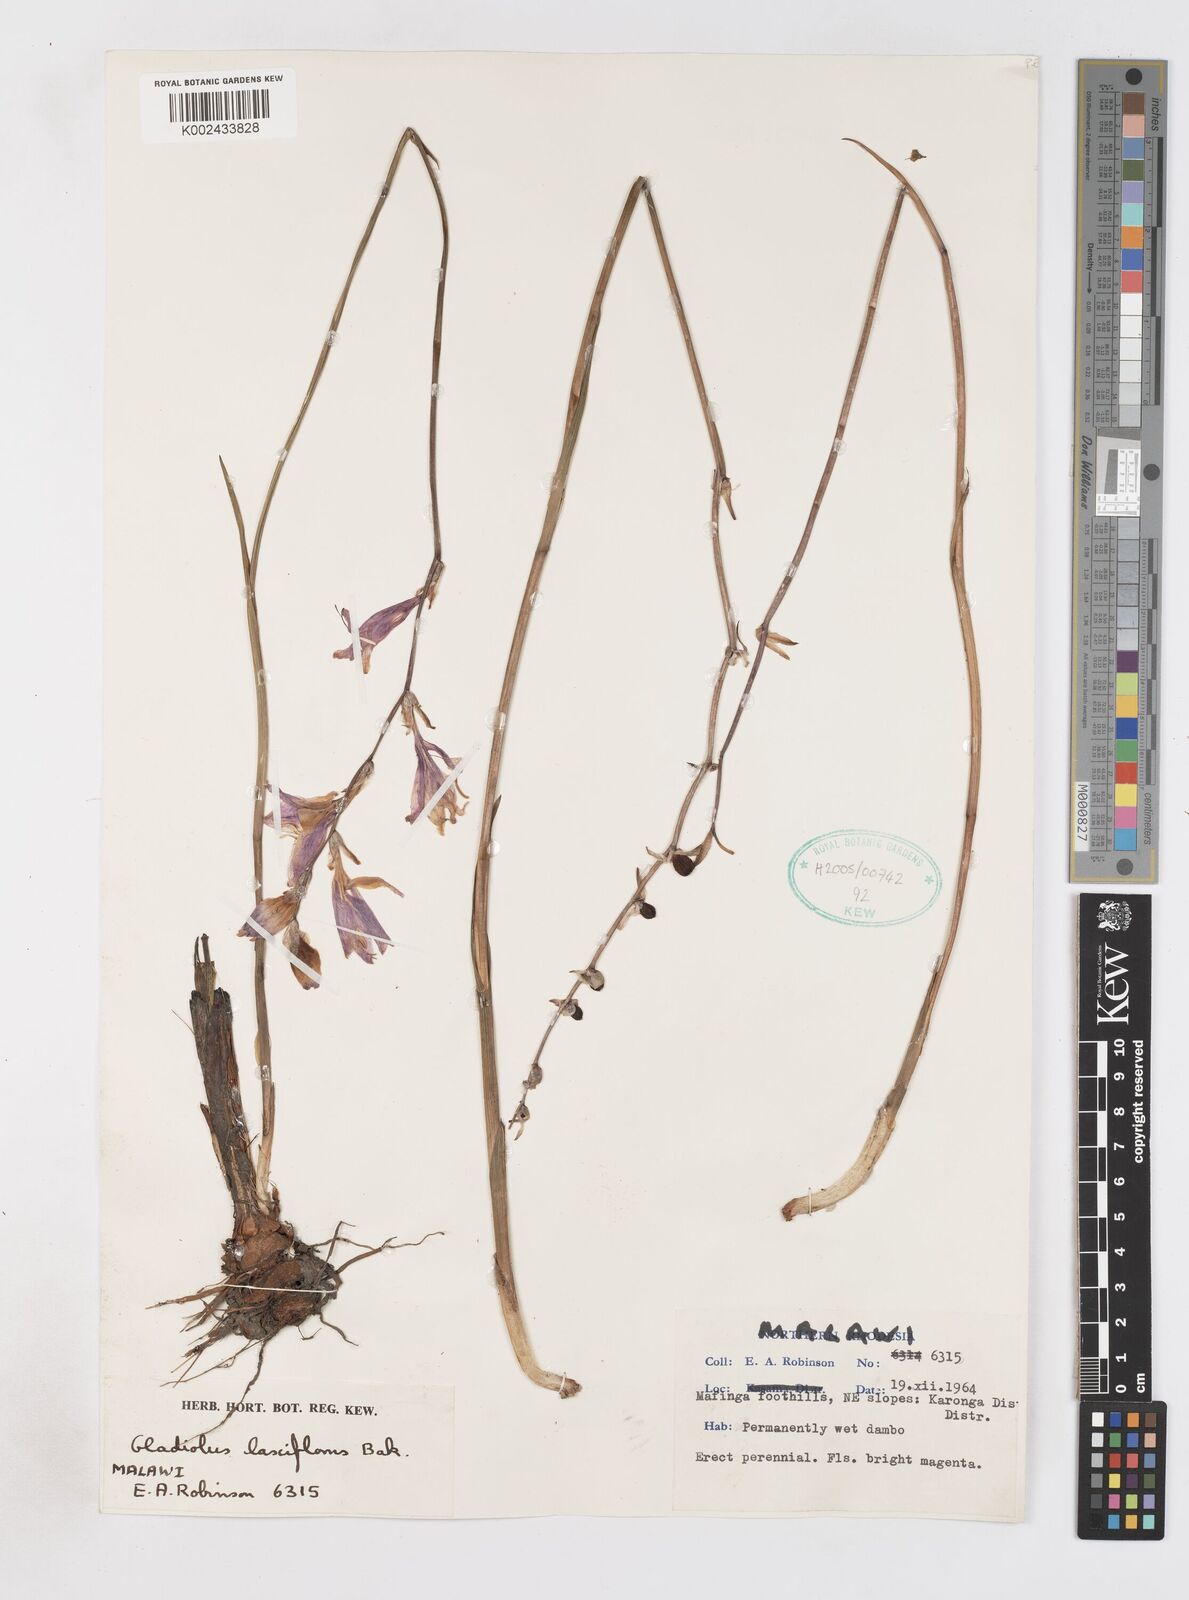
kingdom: Plantae
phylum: Tracheophyta
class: Liliopsida
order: Asparagales
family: Iridaceae
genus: Gladiolus
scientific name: Gladiolus laxiflorus
